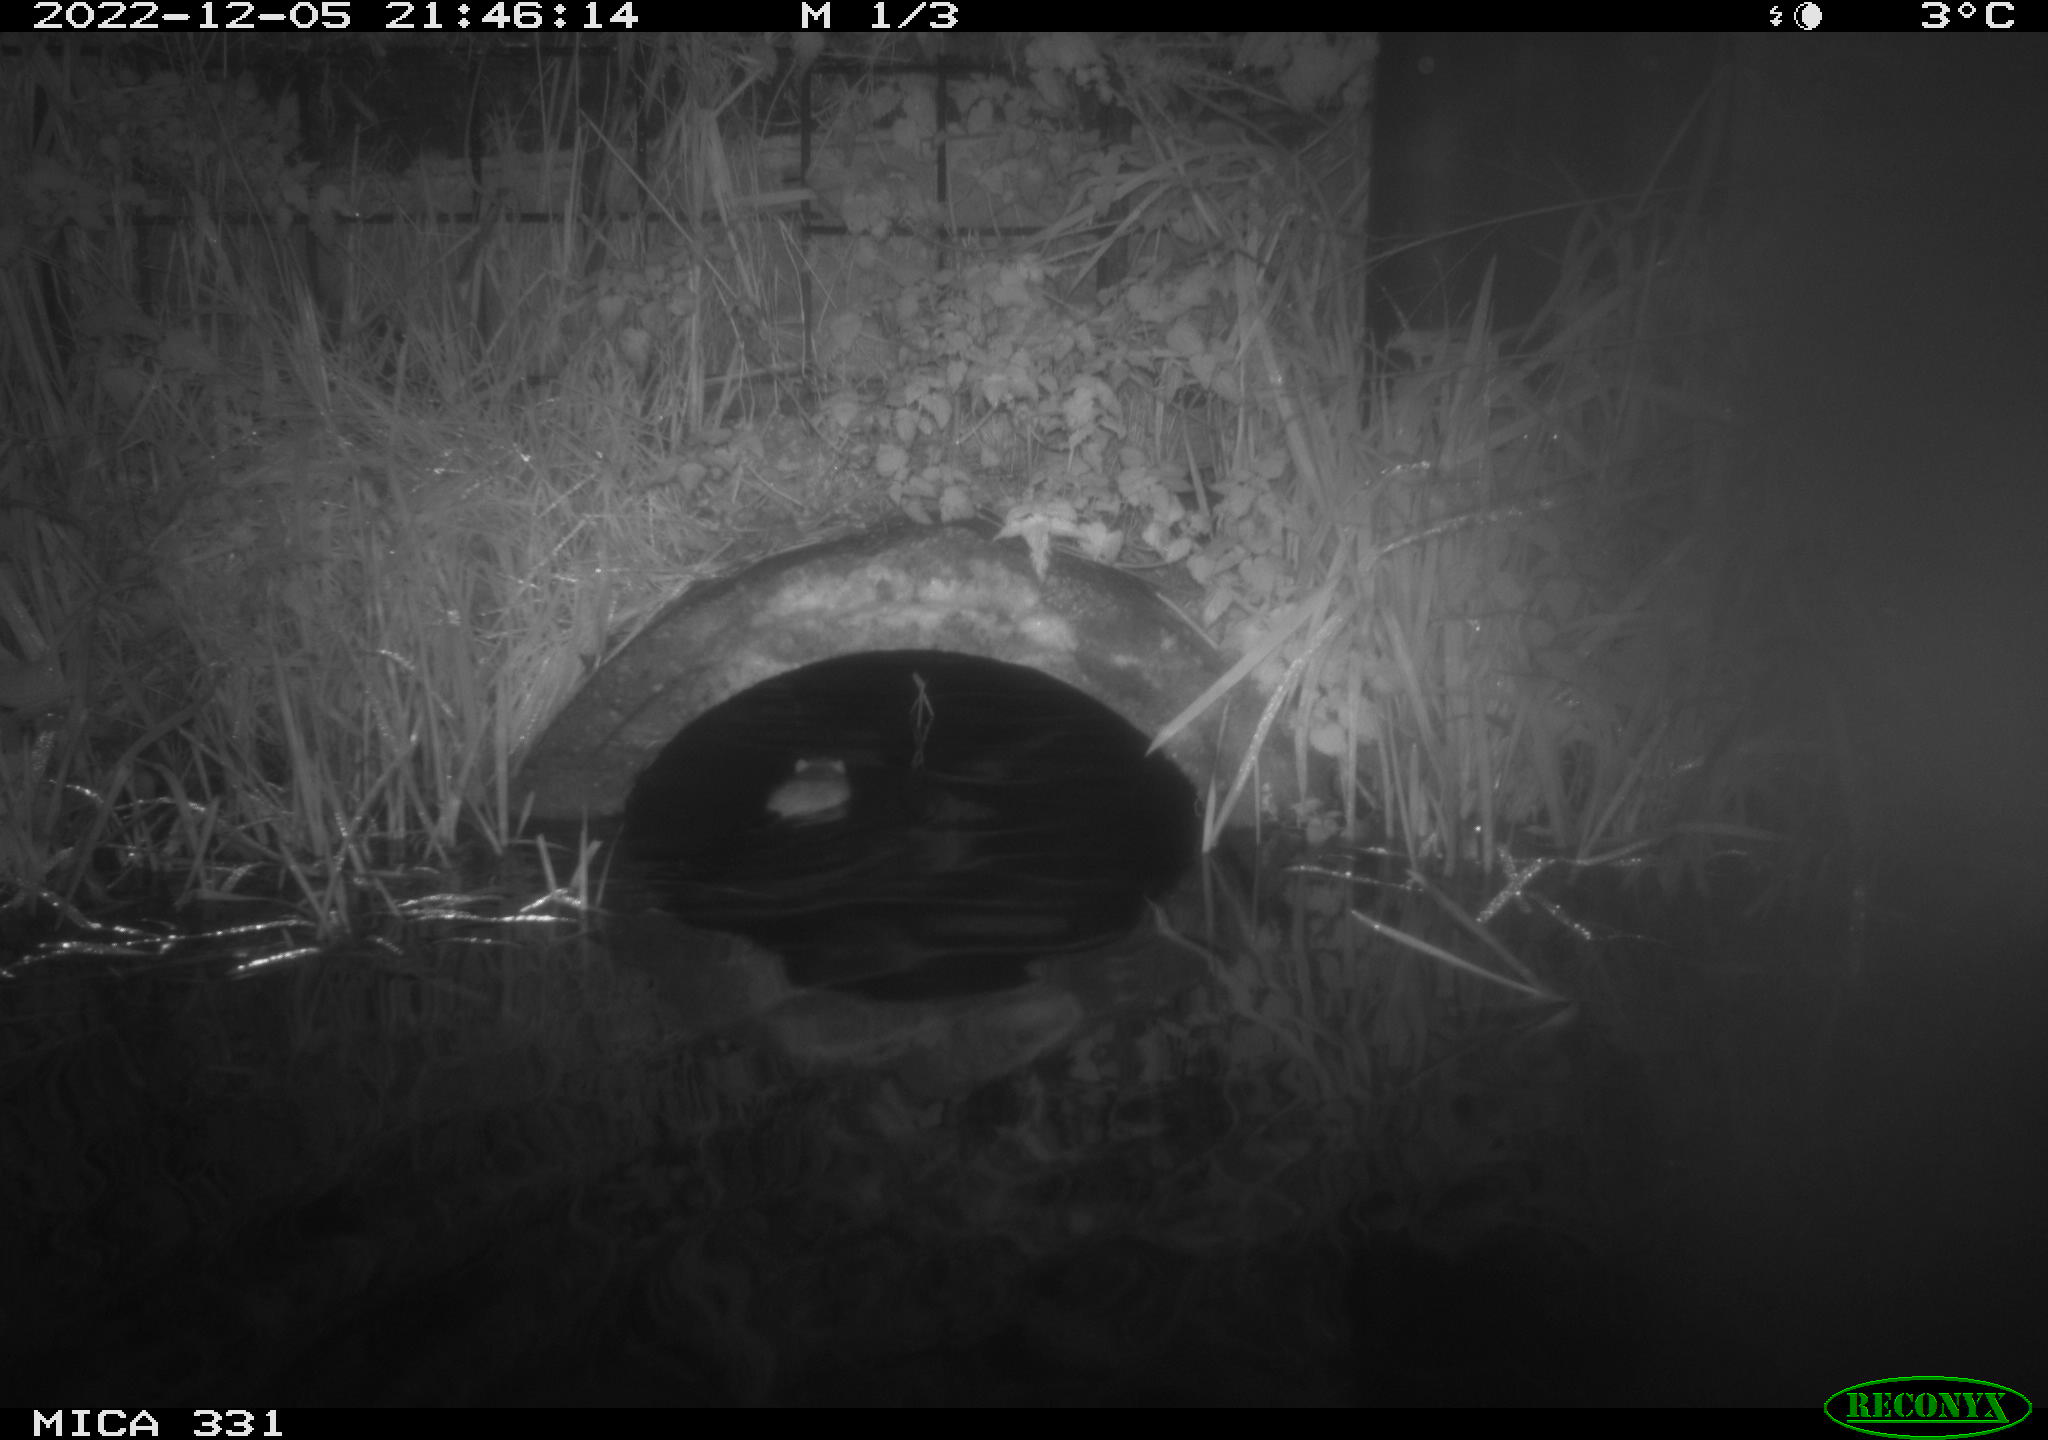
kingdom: Animalia
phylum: Chordata
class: Mammalia
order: Rodentia
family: Muridae
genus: Rattus
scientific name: Rattus norvegicus
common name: Brown rat
